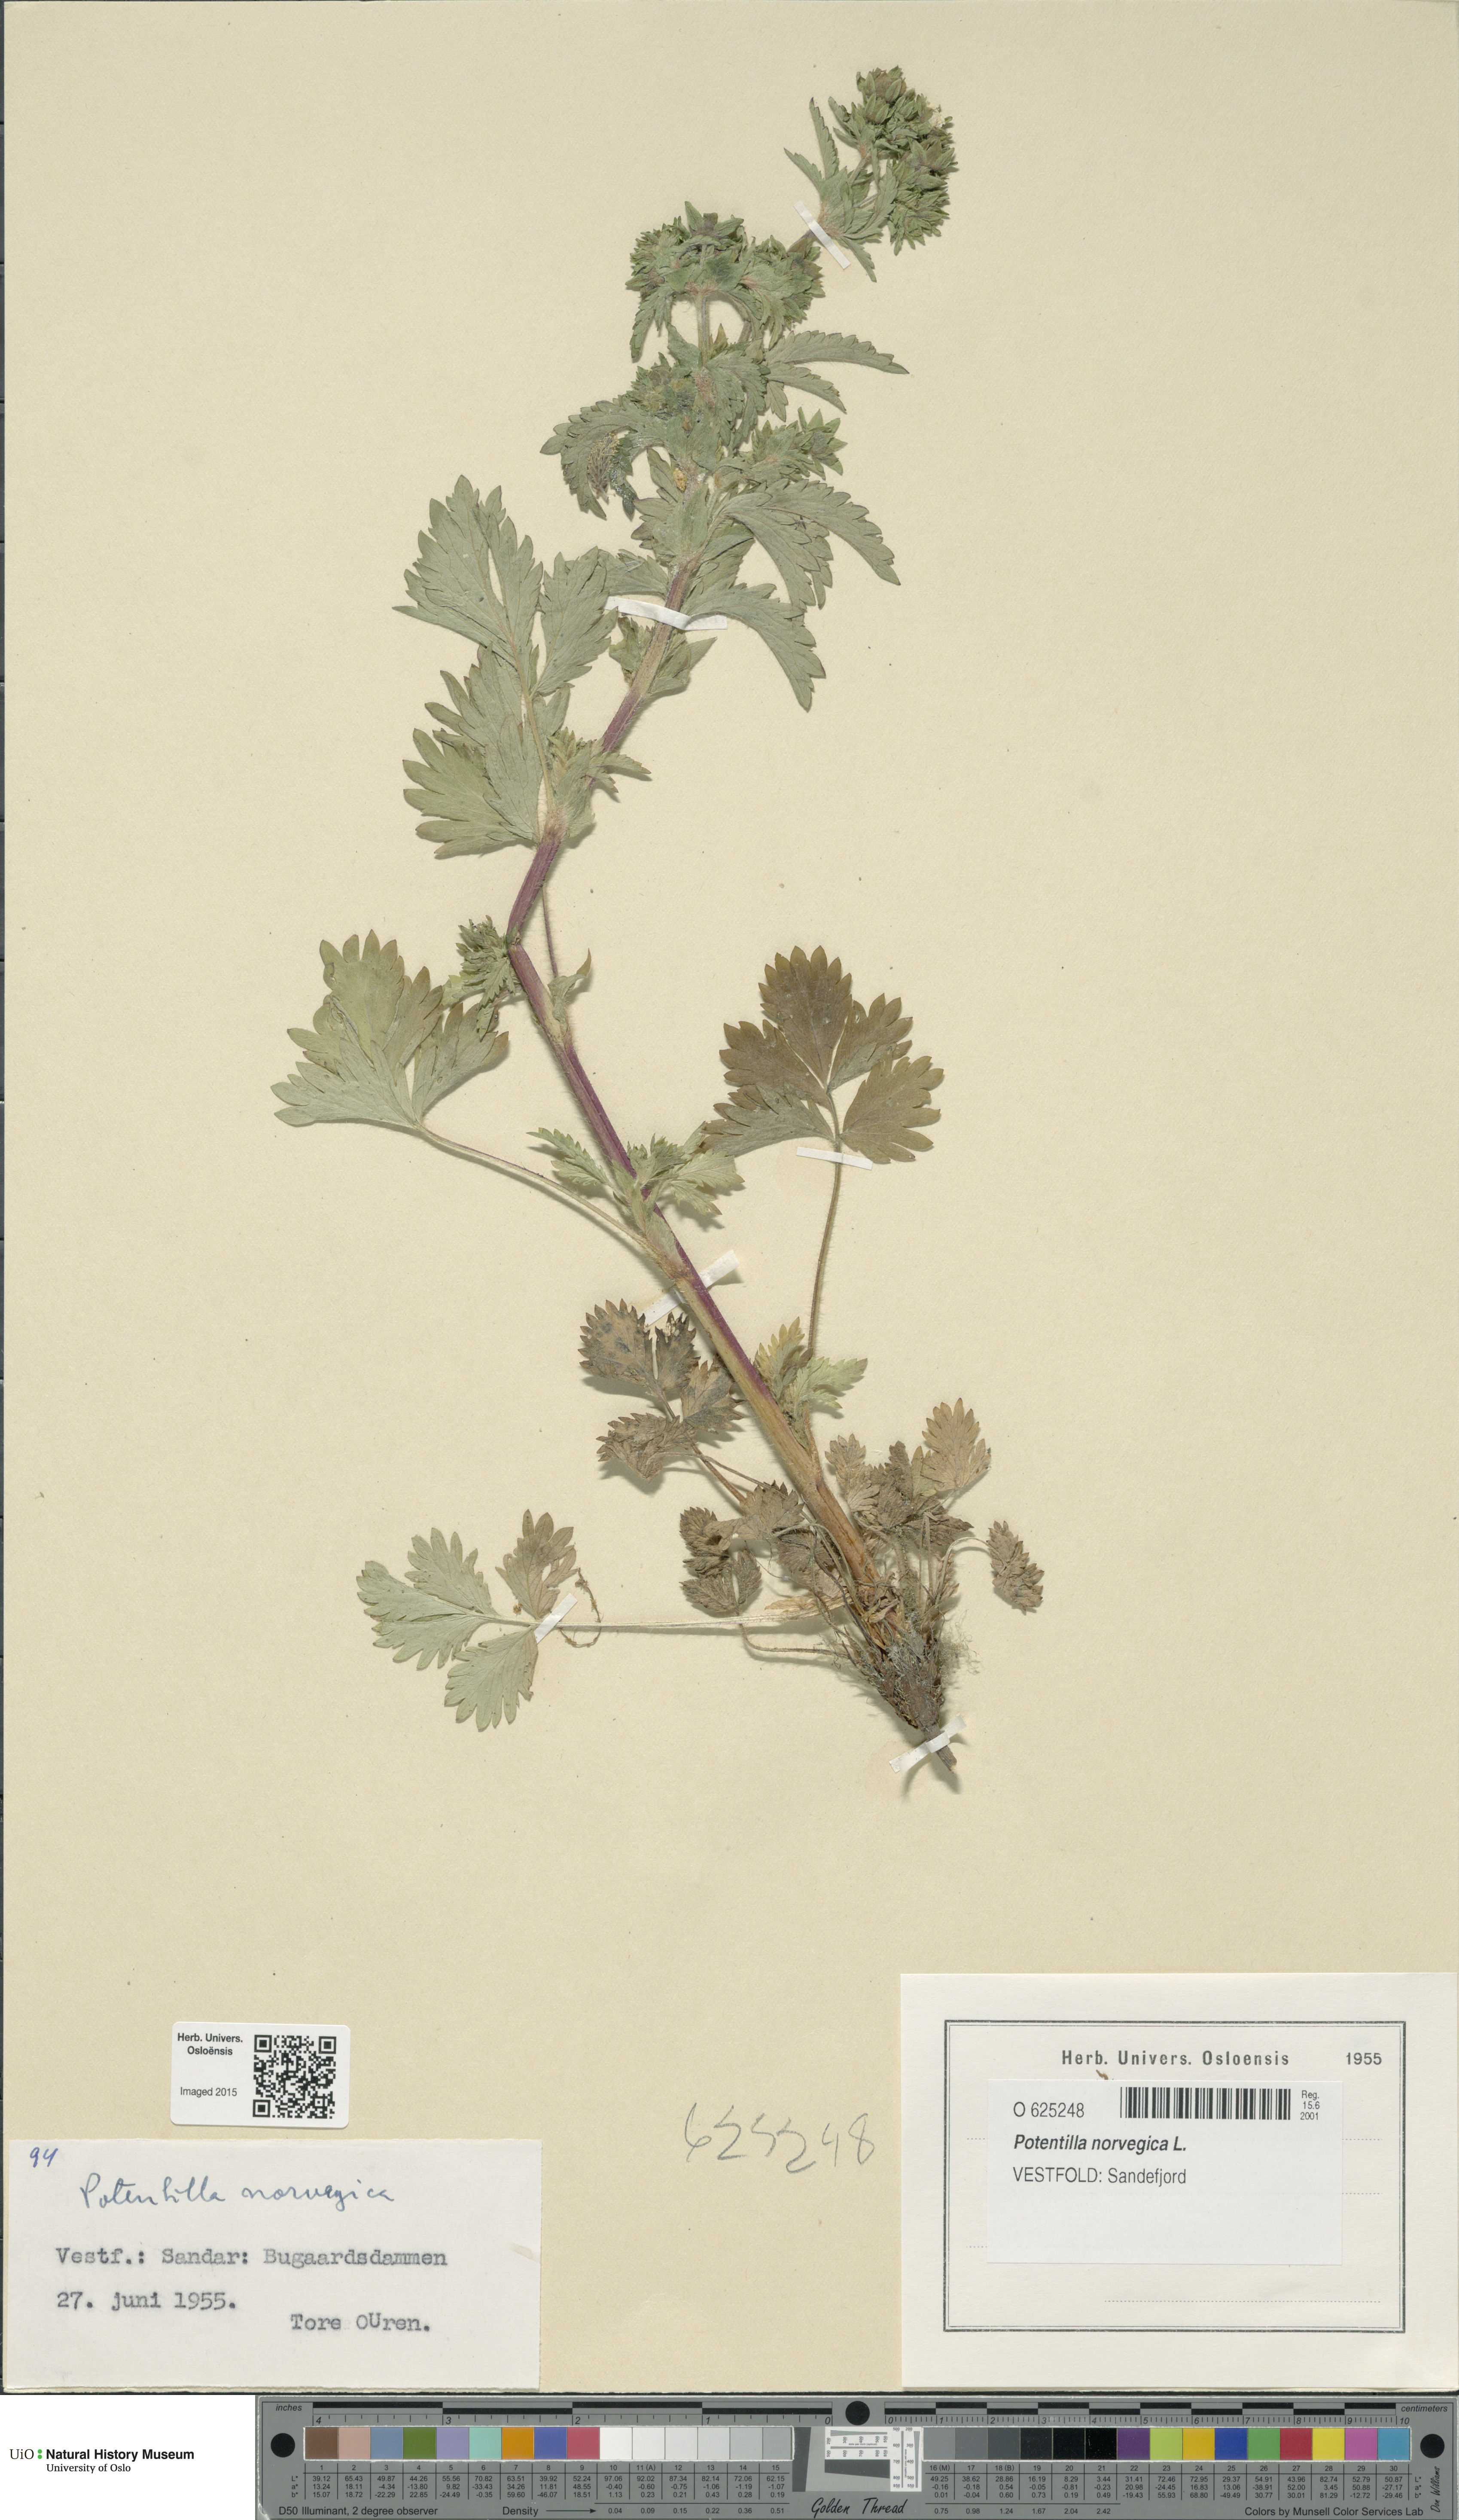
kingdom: Plantae
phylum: Tracheophyta
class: Magnoliopsida
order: Rosales
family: Rosaceae
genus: Potentilla
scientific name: Potentilla norvegica
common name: Ternate-leaved cinquefoil
